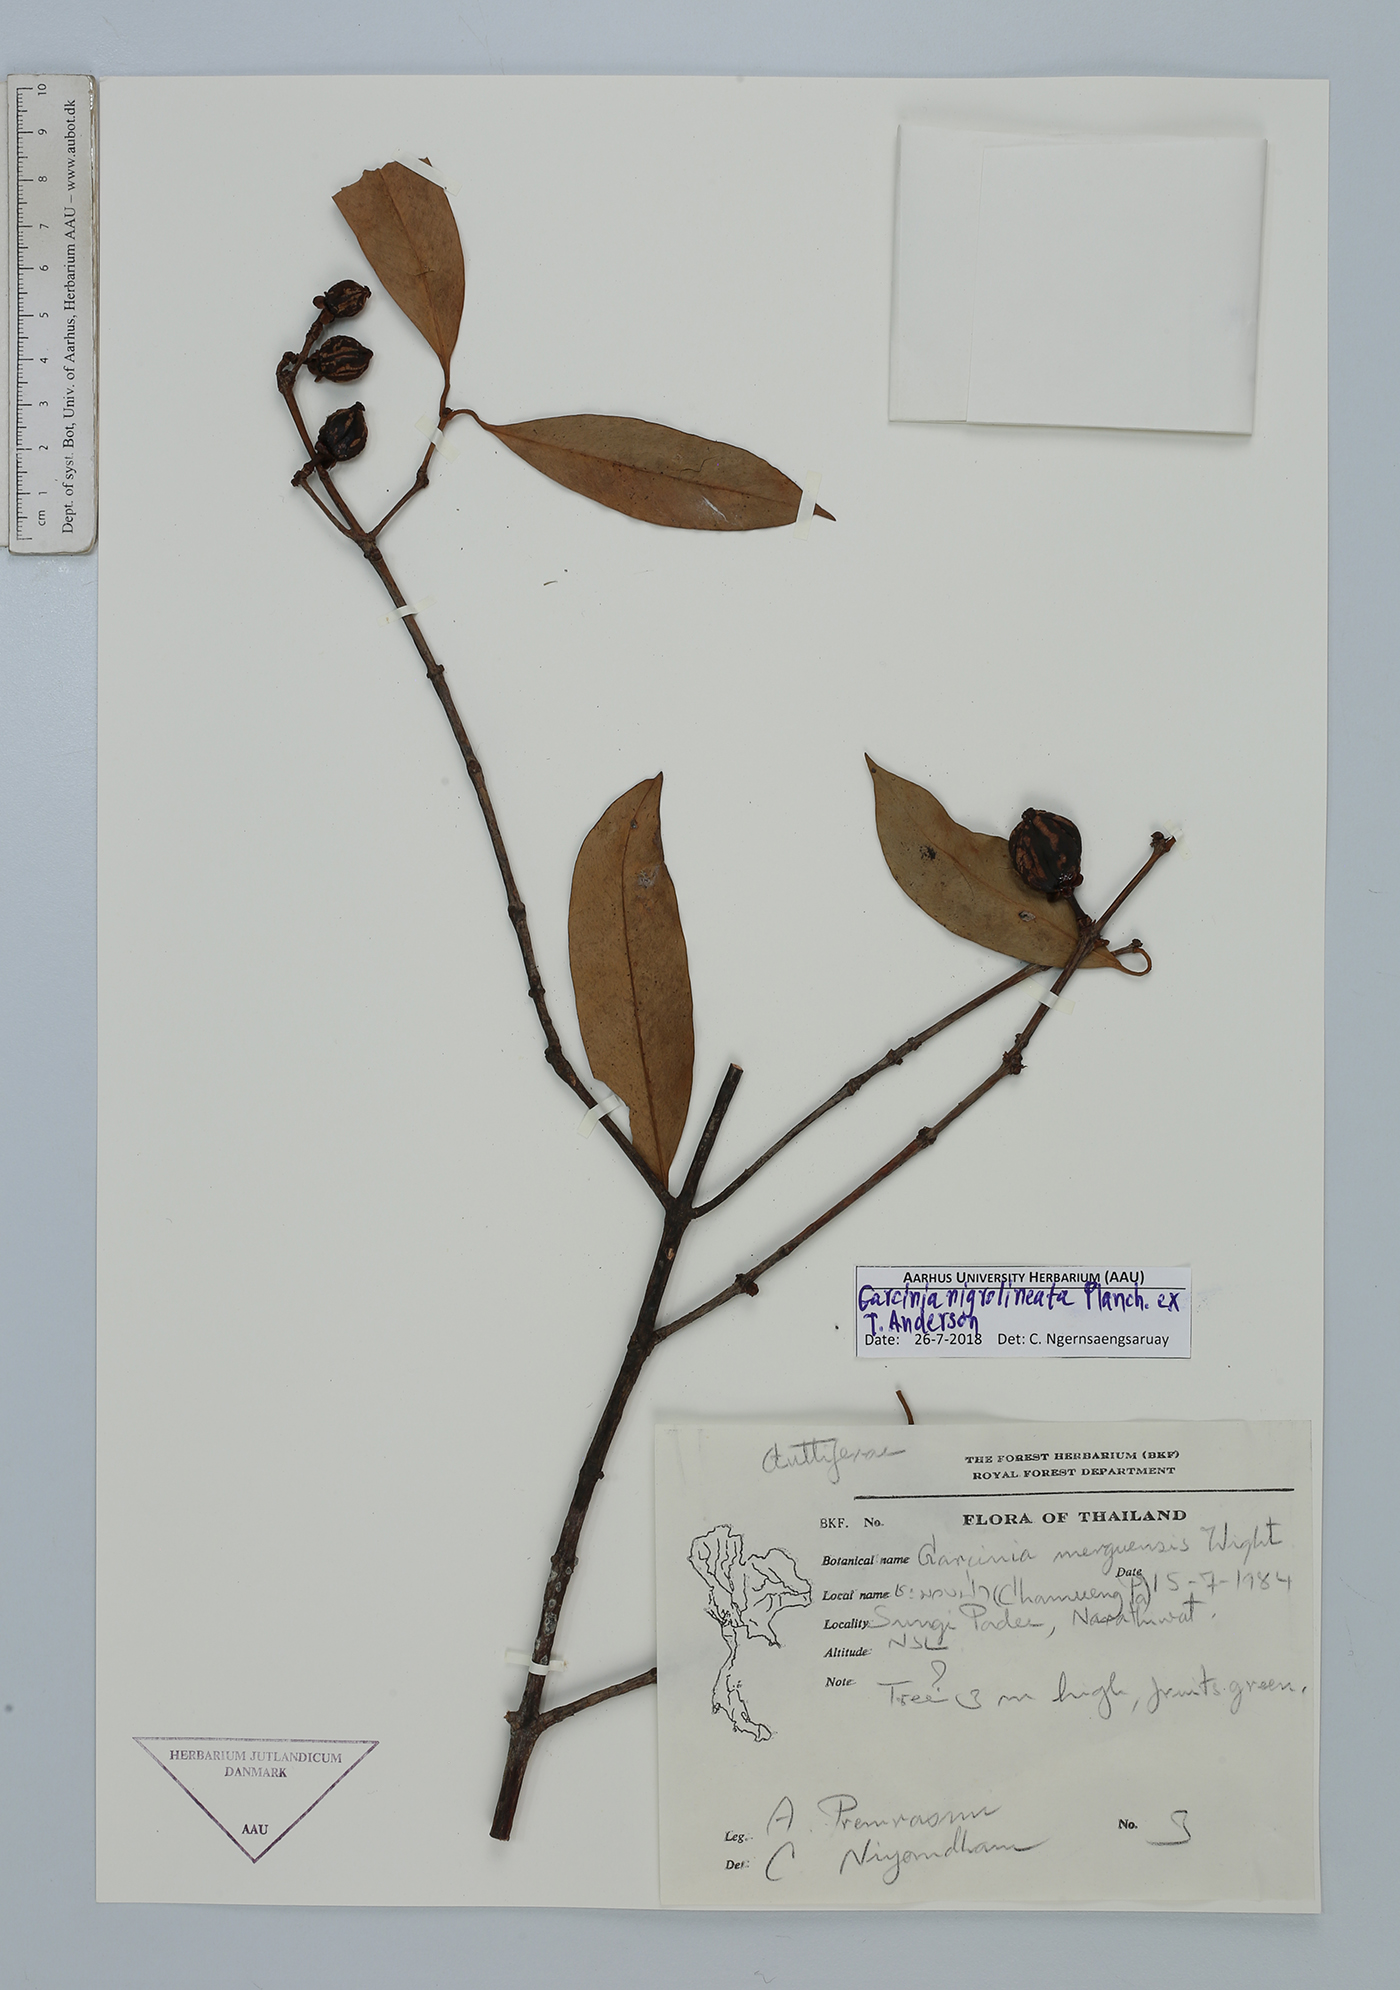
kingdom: Plantae
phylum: Tracheophyta
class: Magnoliopsida
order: Malpighiales
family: Clusiaceae
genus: Garcinia
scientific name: Garcinia nigrolineata
